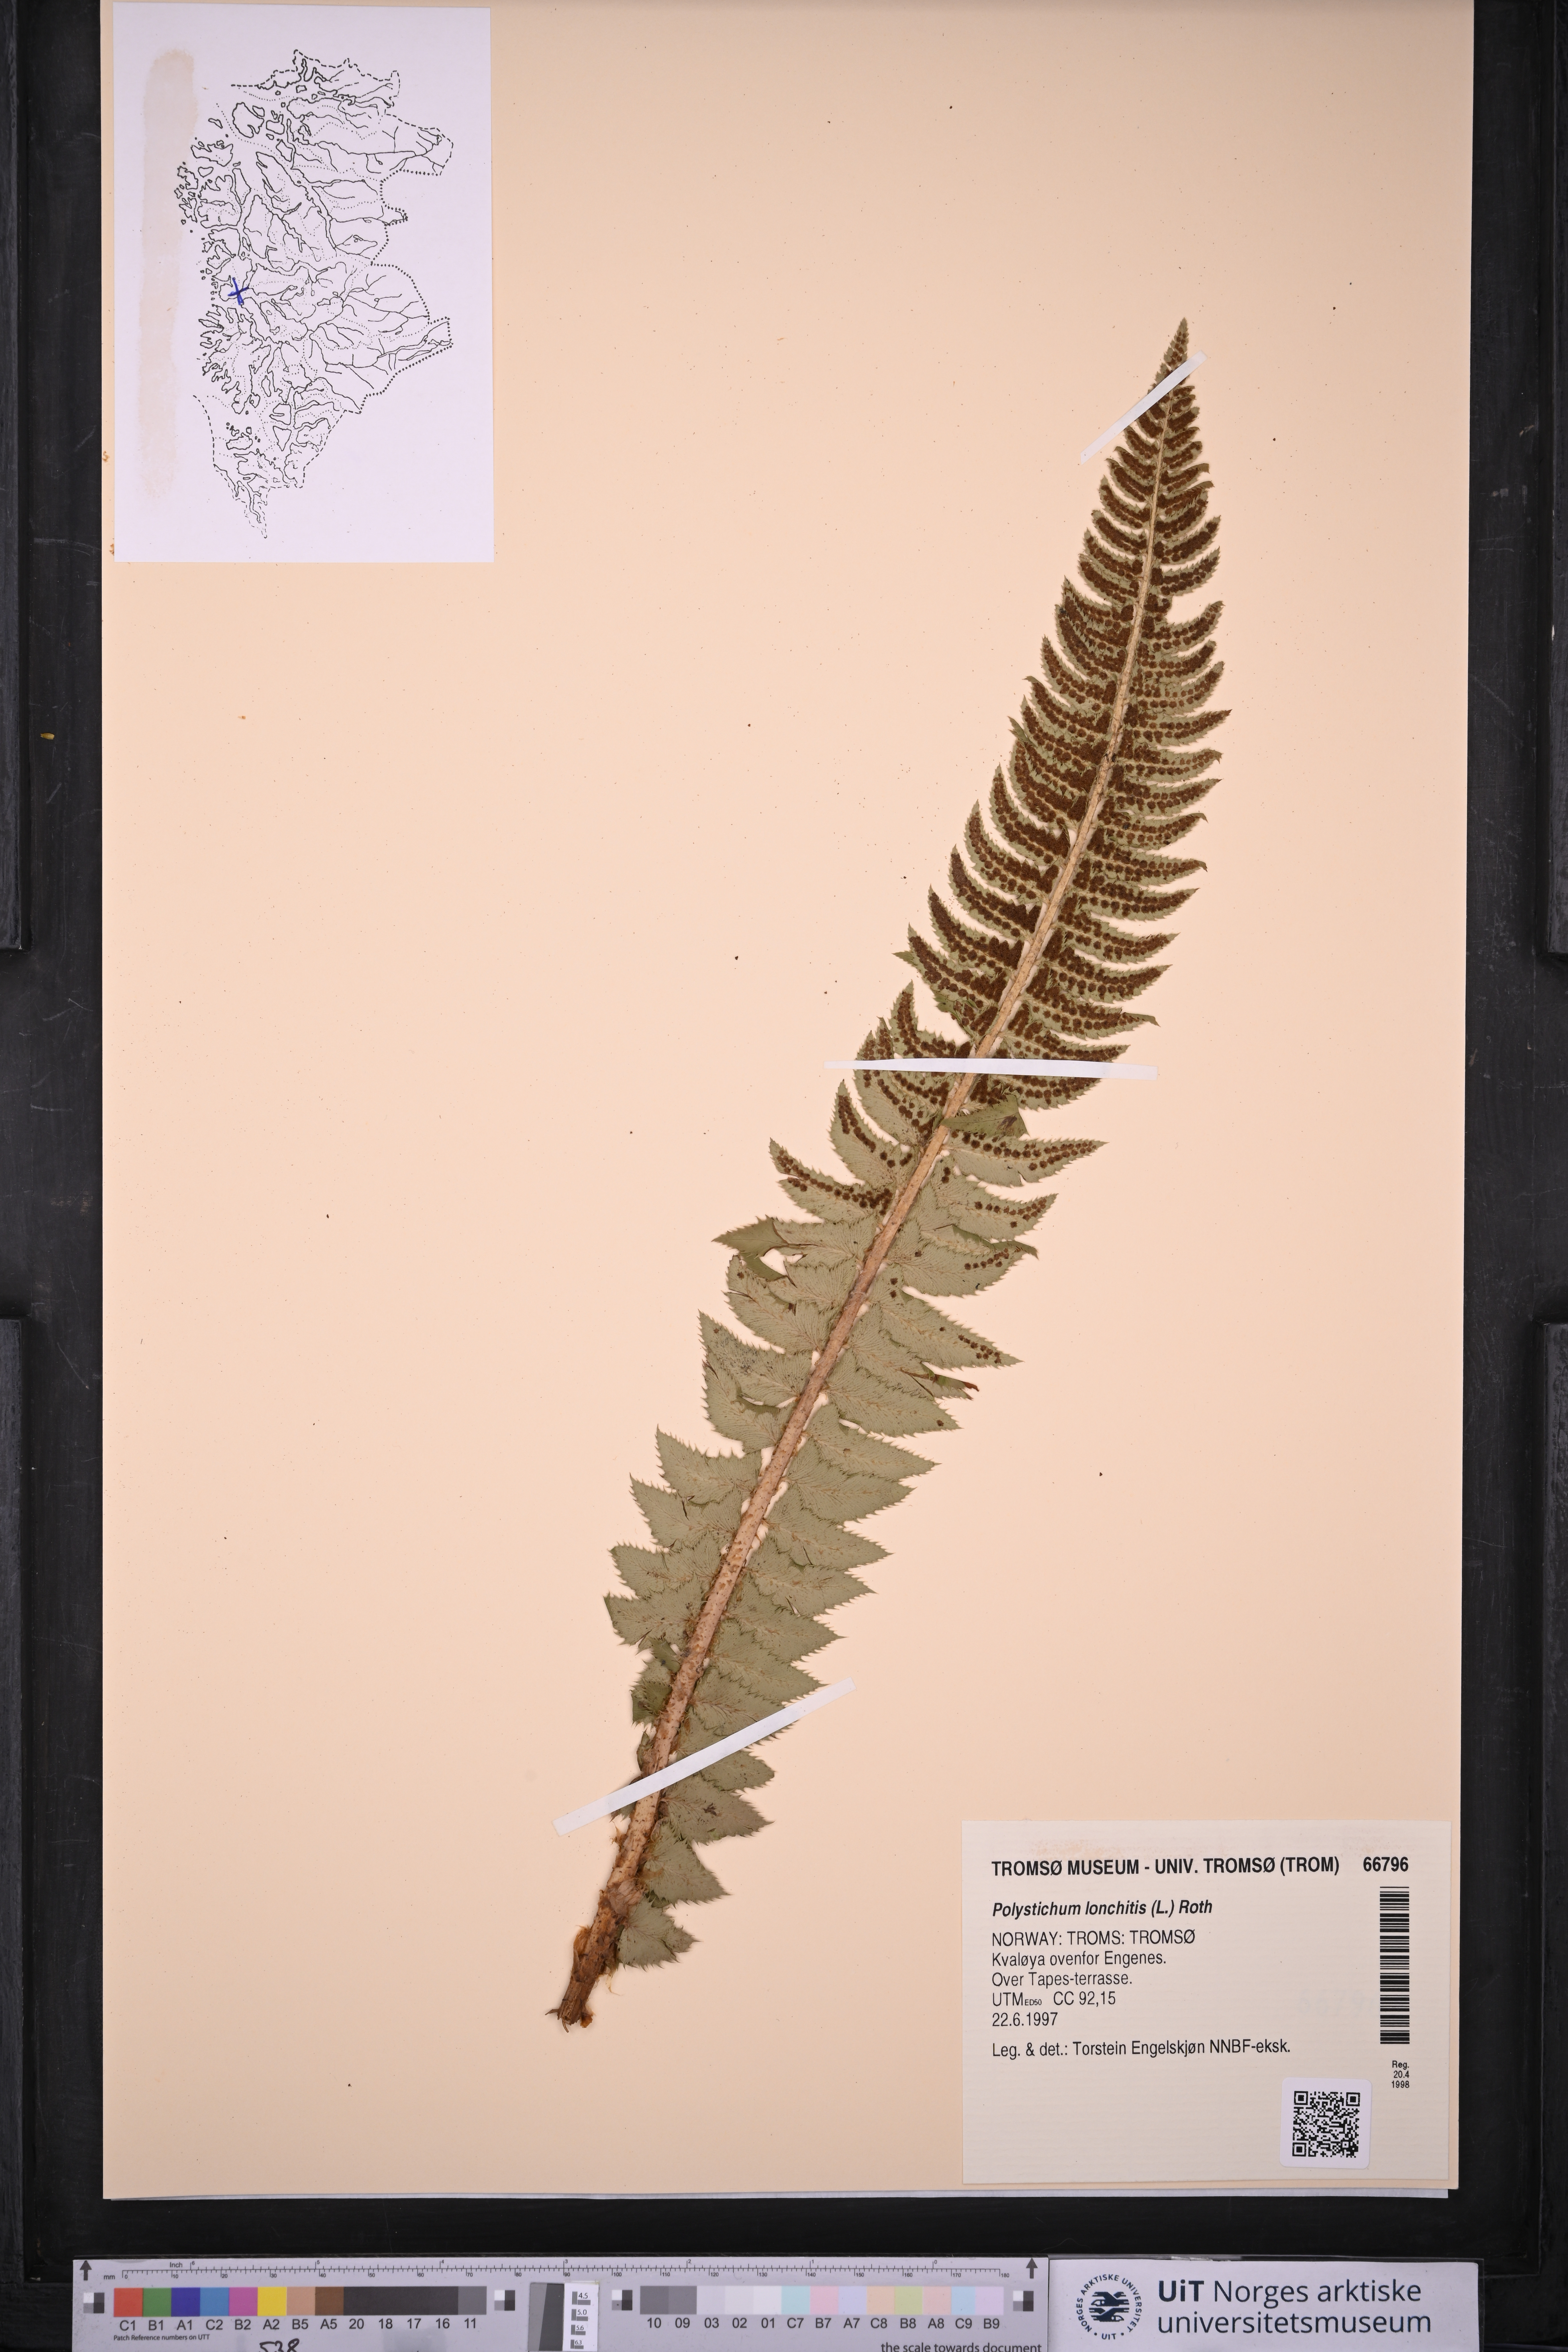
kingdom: Plantae
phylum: Tracheophyta
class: Polypodiopsida
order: Polypodiales
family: Dryopteridaceae
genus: Polystichum
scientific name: Polystichum lonchitis
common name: Holly fern
